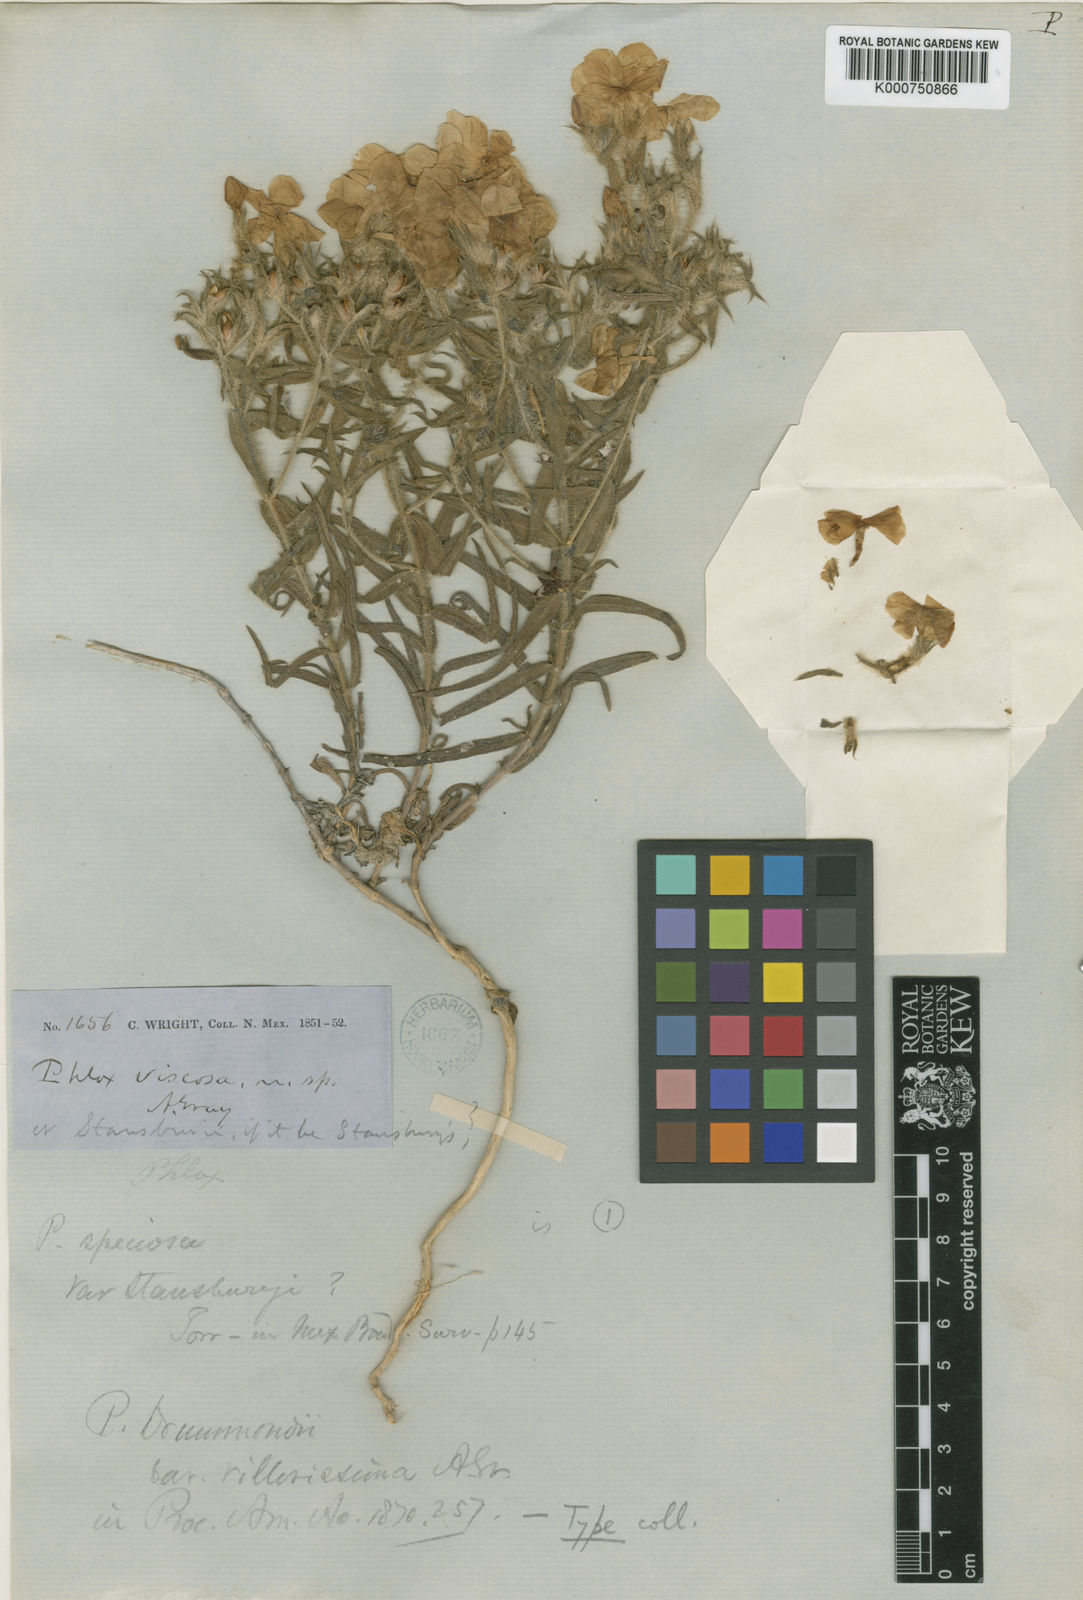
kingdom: Plantae
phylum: Tracheophyta
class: Magnoliopsida
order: Ericales
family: Polemoniaceae
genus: Phlox
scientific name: Phlox drummondii
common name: Drummond's phlox
